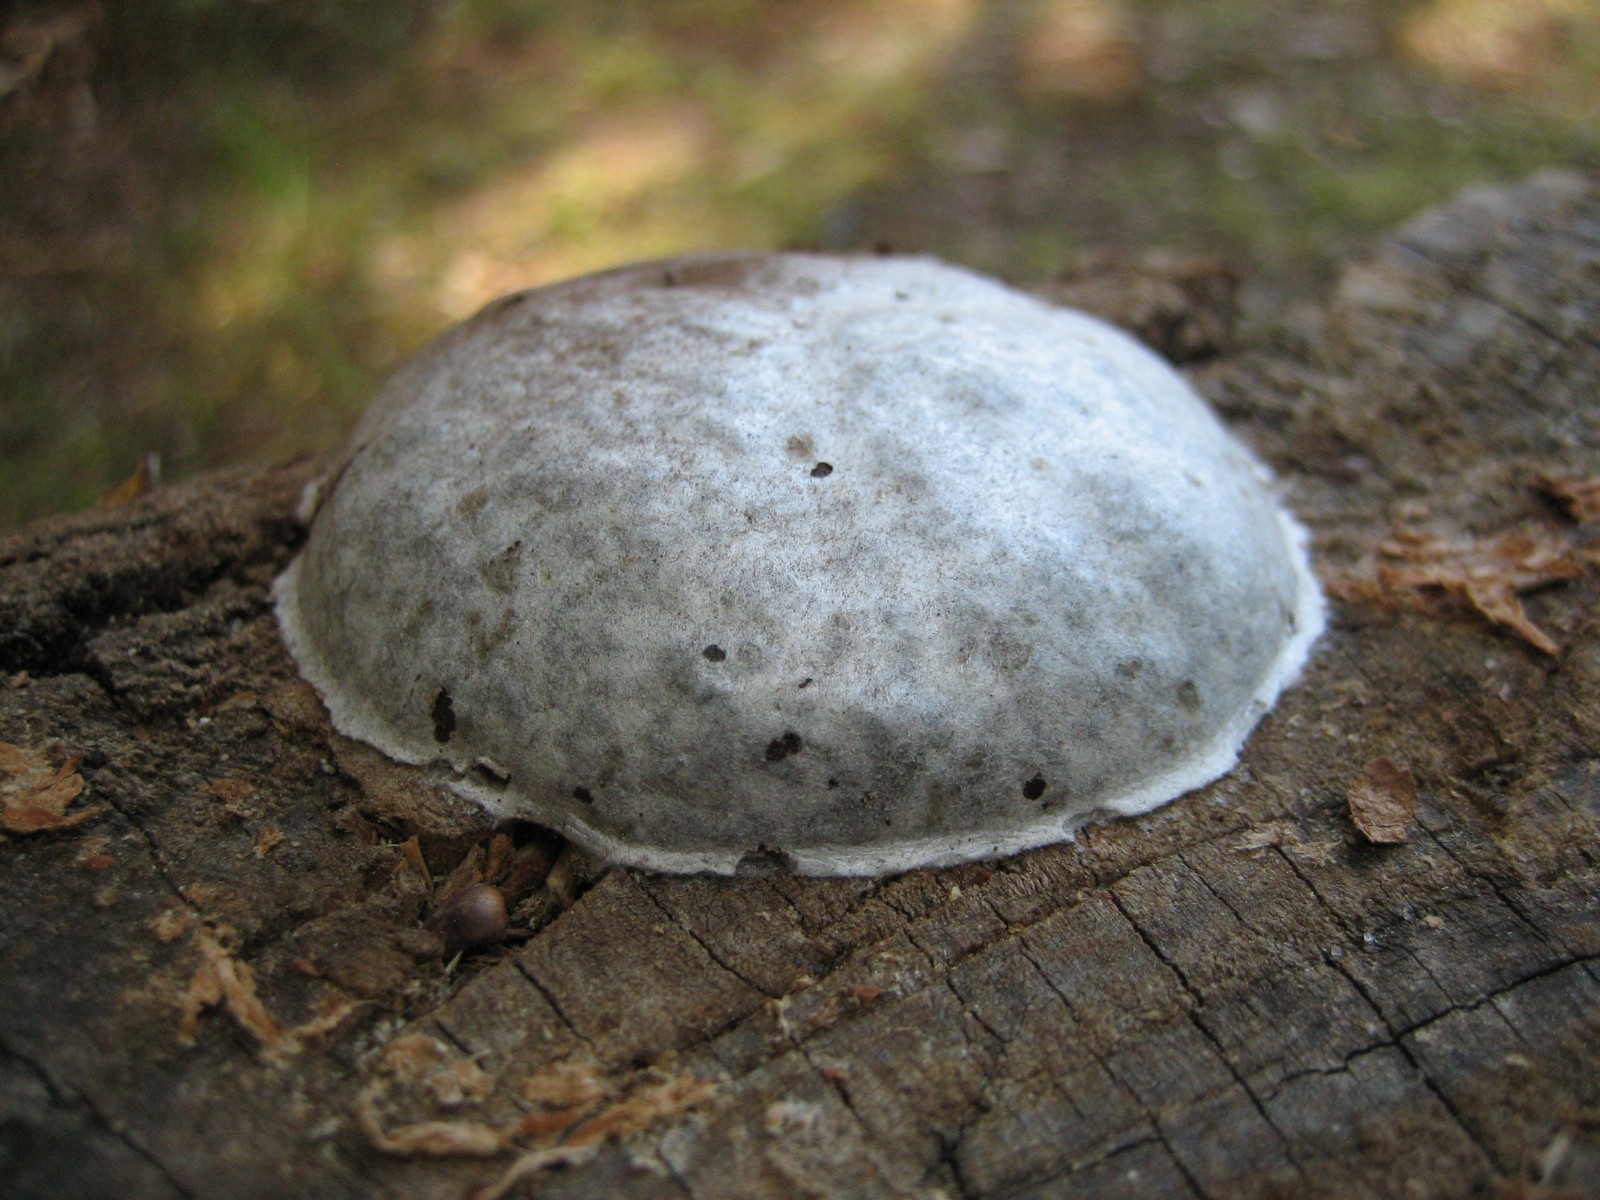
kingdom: Protozoa
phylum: Mycetozoa
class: Myxomycetes
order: Cribrariales
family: Tubiferaceae
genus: Reticularia
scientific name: Reticularia lycoperdon
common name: skinnende støvpude
